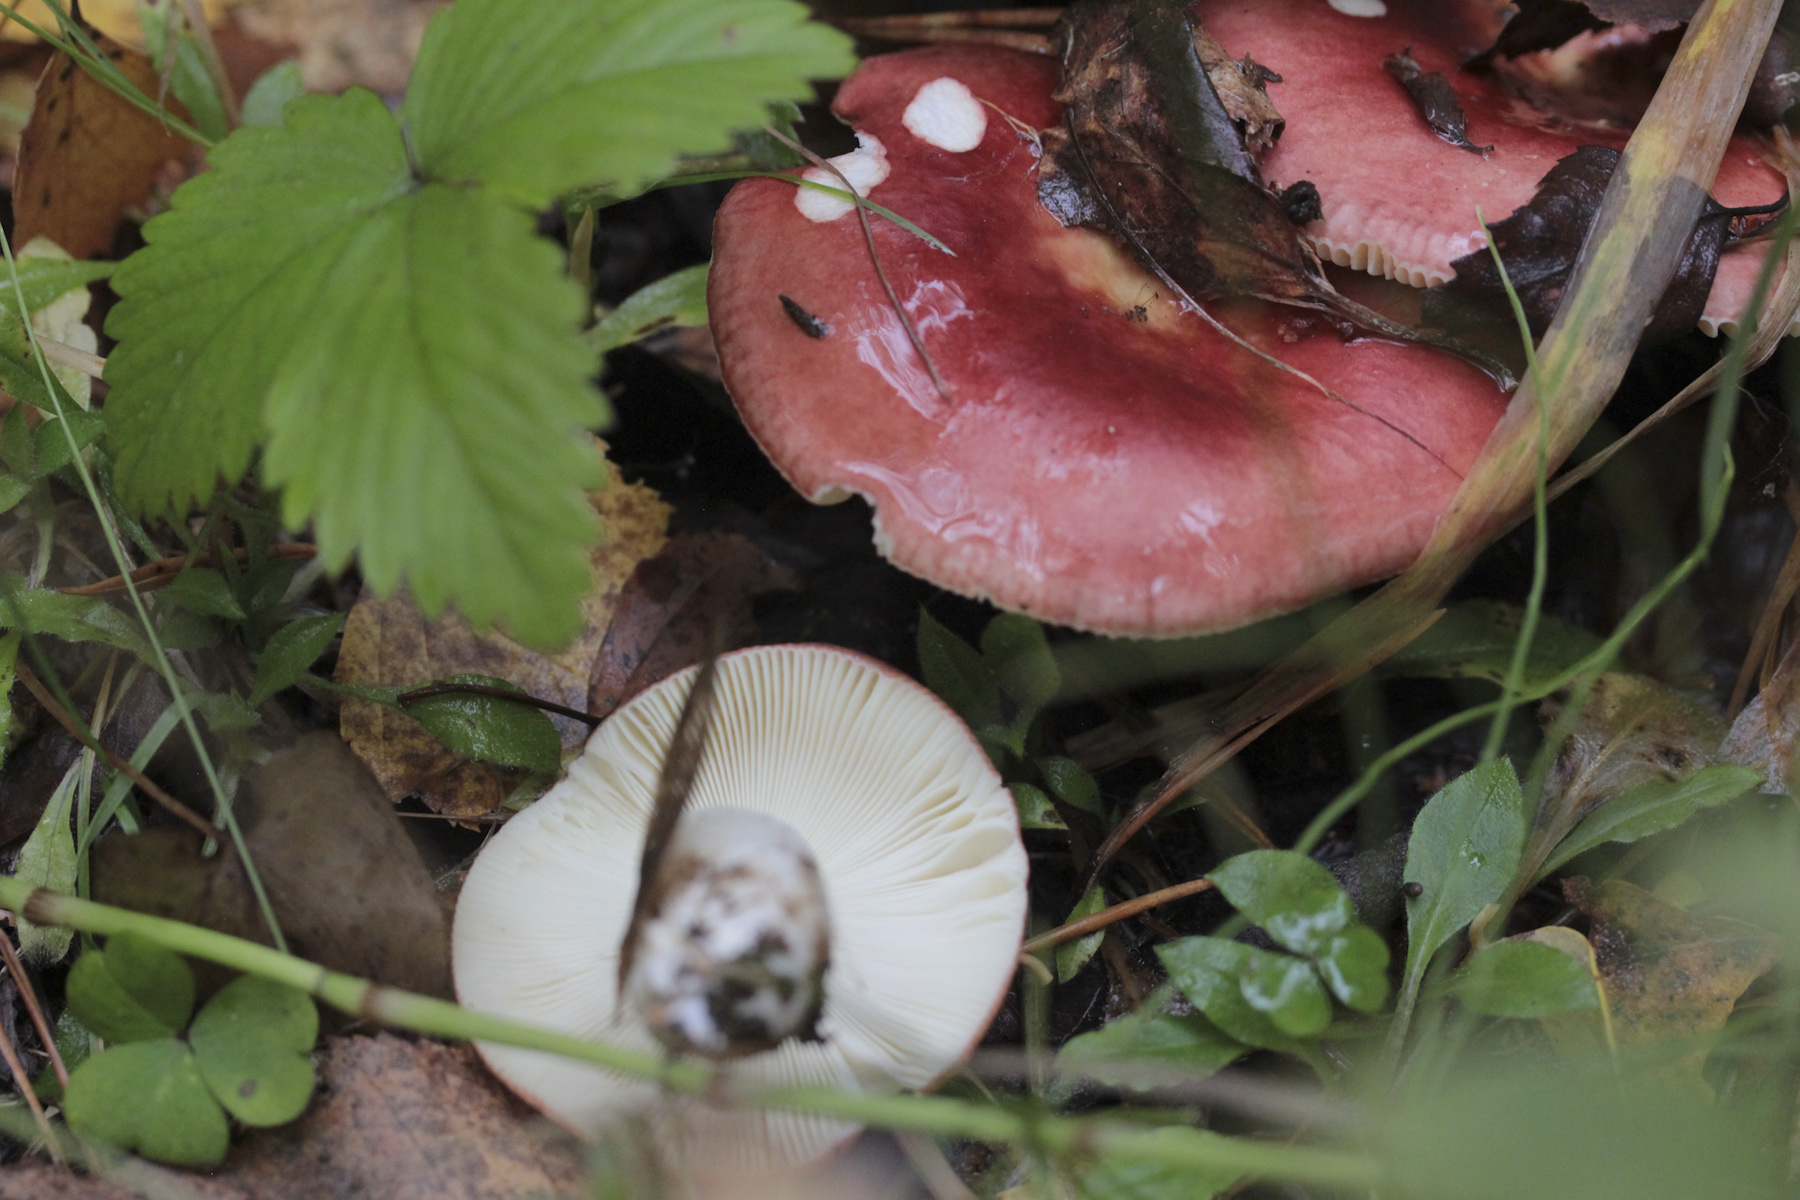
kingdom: Fungi
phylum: Basidiomycota
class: Agaricomycetes
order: Russulales
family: Russulaceae
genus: Russula
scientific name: Russula
